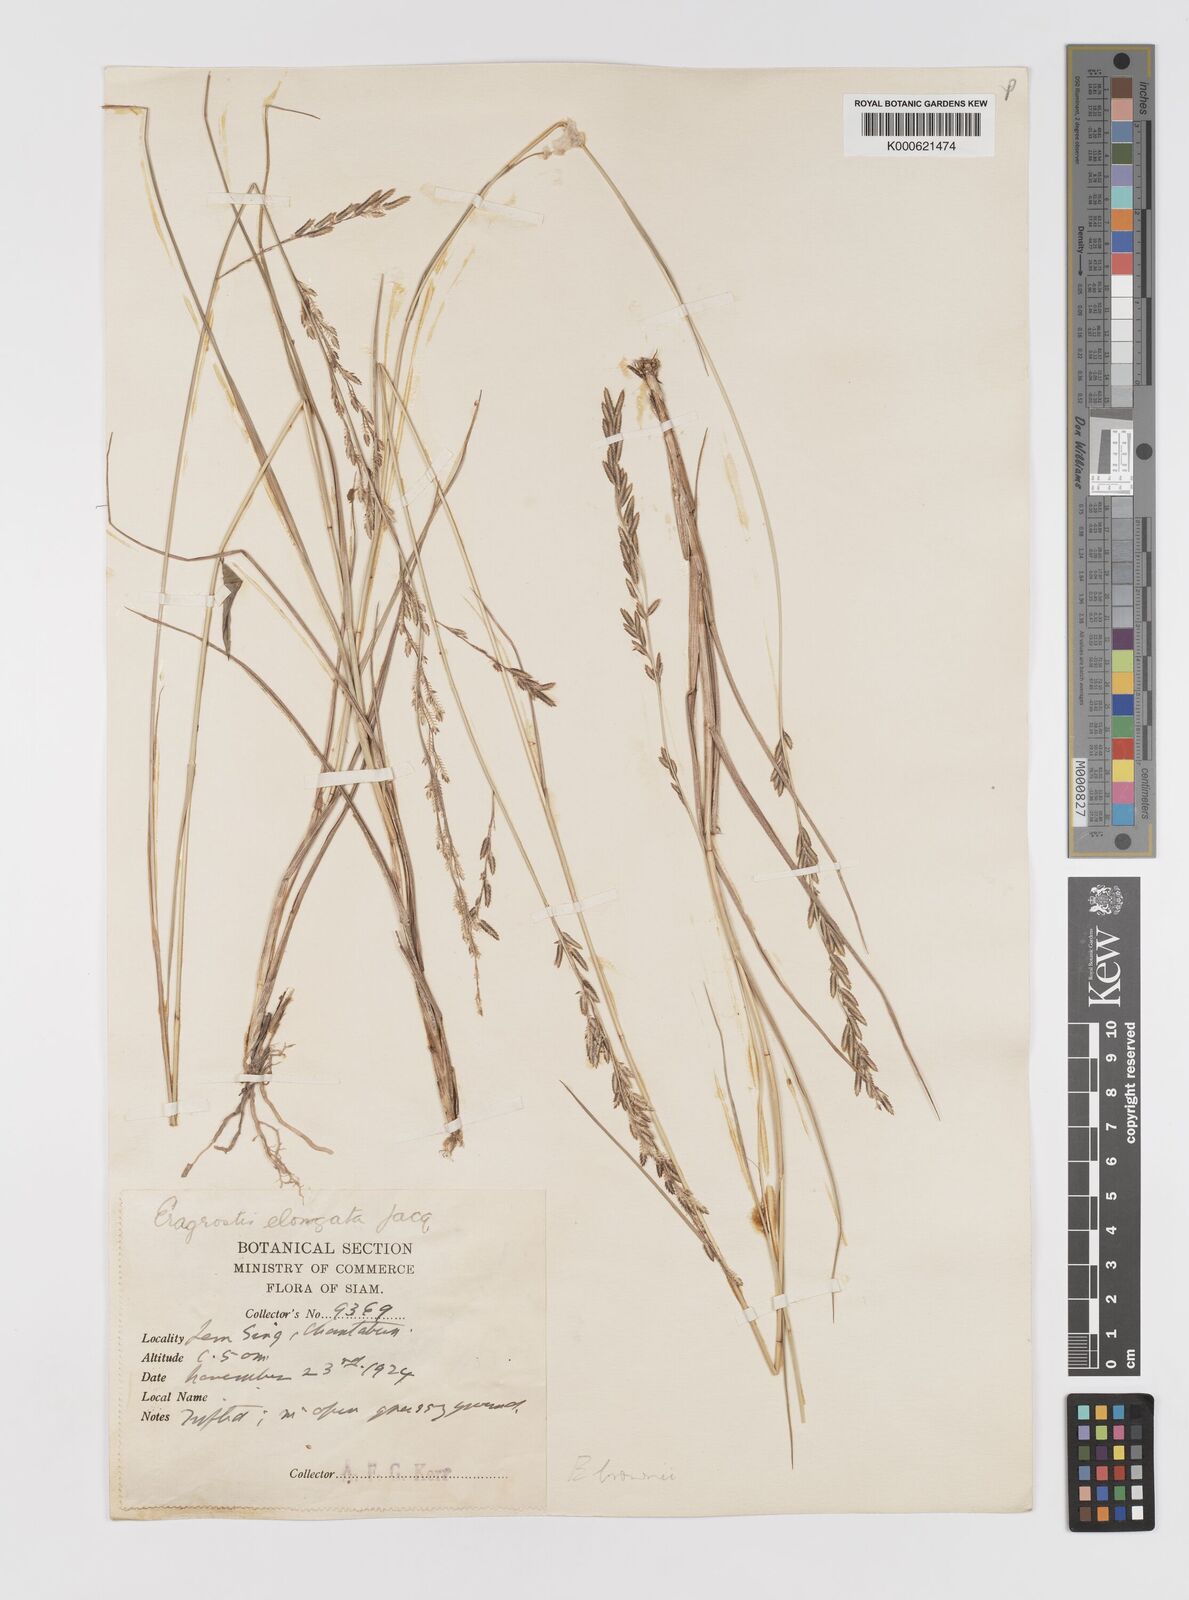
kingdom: Plantae
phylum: Tracheophyta
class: Liliopsida
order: Poales
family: Poaceae
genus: Eragrostis
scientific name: Eragrostis brownii
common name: Lovegrass
